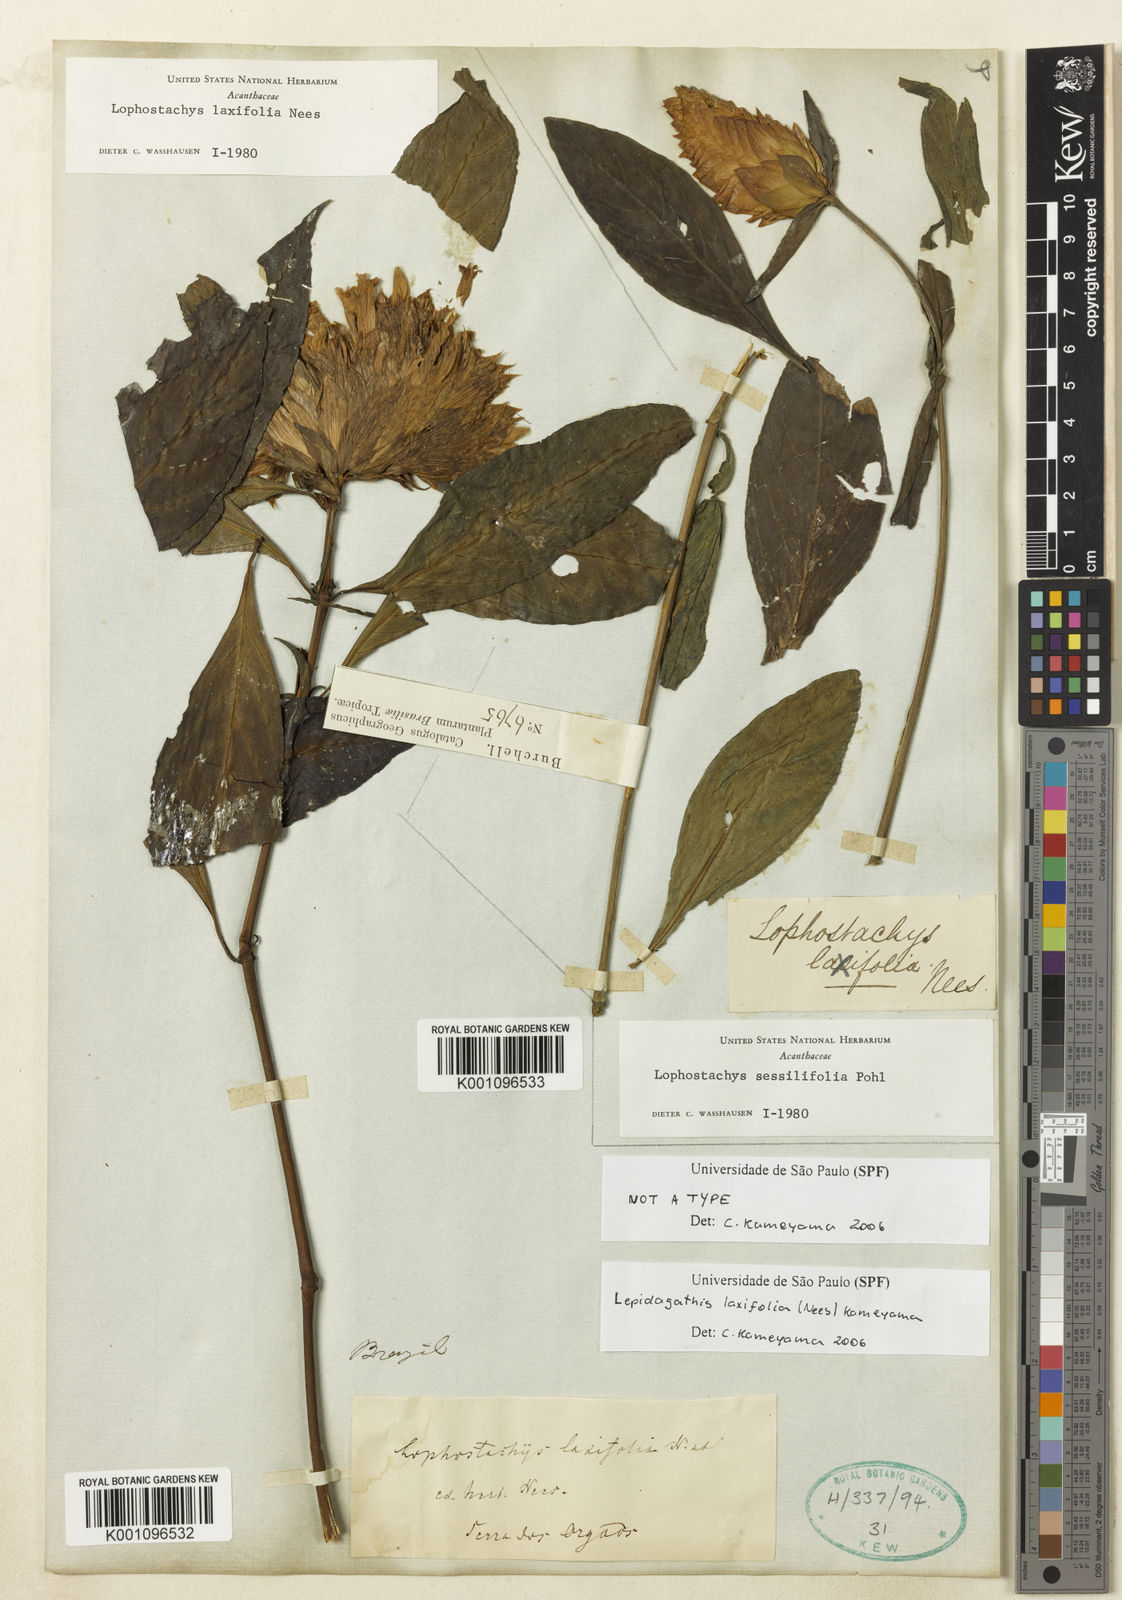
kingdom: Plantae
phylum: Tracheophyta
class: Magnoliopsida
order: Lamiales
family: Acanthaceae
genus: Lepidagathis
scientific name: Lepidagathis laxifolia
